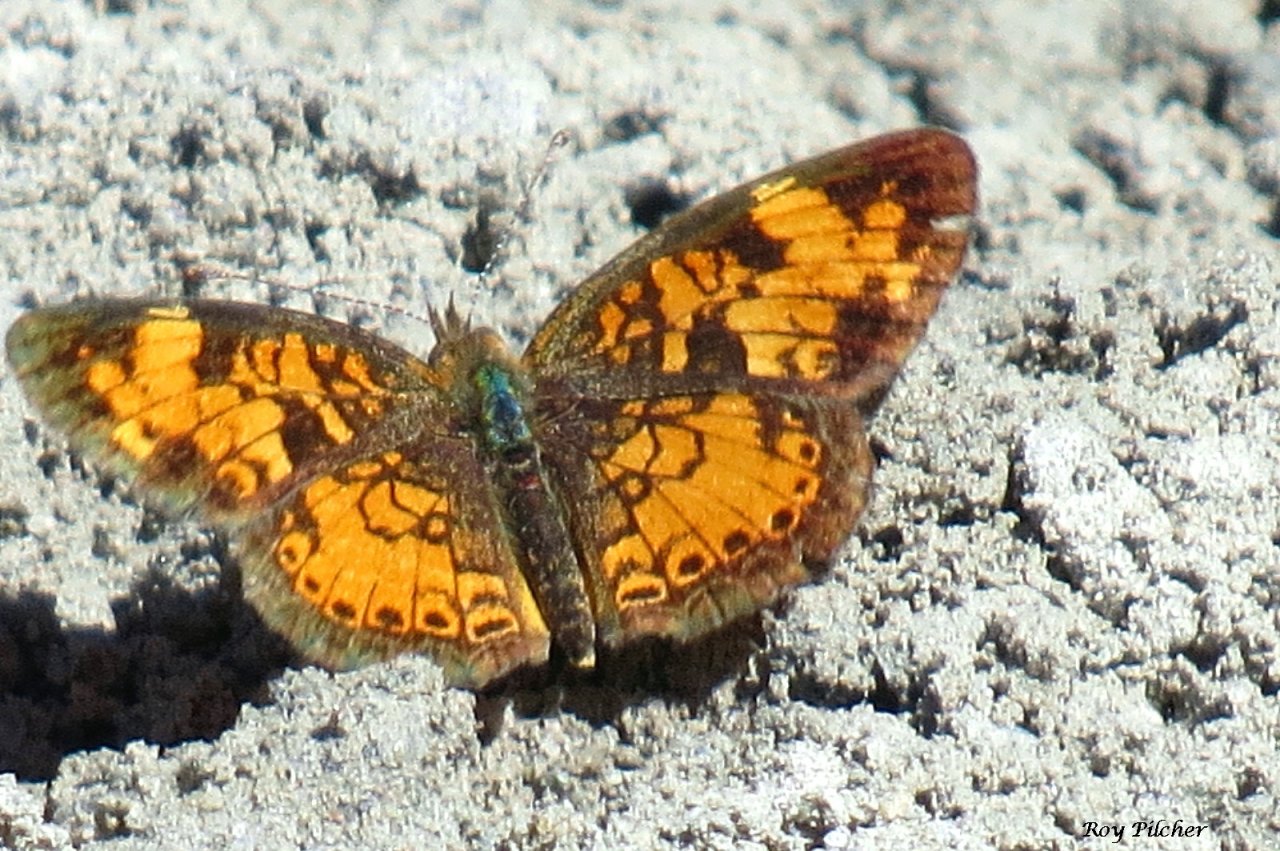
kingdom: Animalia
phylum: Arthropoda
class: Insecta
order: Lepidoptera
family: Nymphalidae
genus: Phyciodes
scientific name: Phyciodes tharos
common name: Northern Crescent
